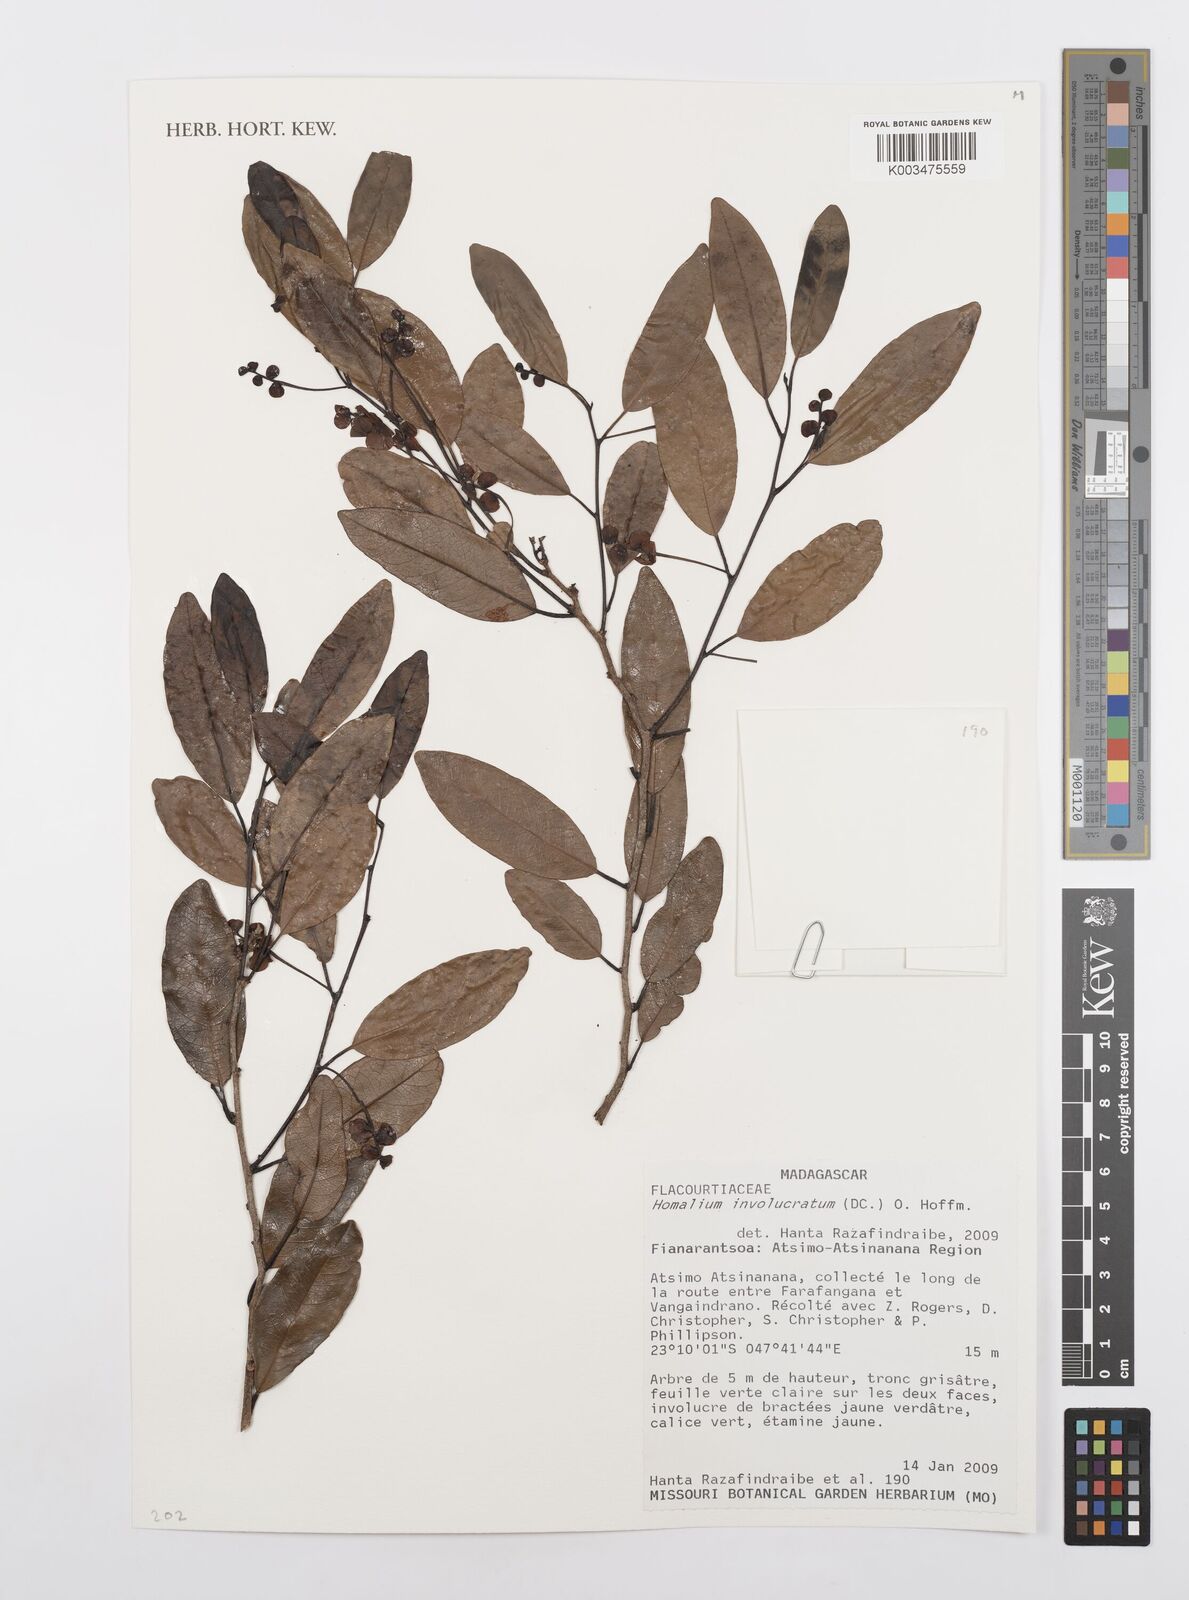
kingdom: Plantae
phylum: Tracheophyta
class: Magnoliopsida
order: Malpighiales
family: Salicaceae
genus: Homalium
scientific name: Homalium involucratum
